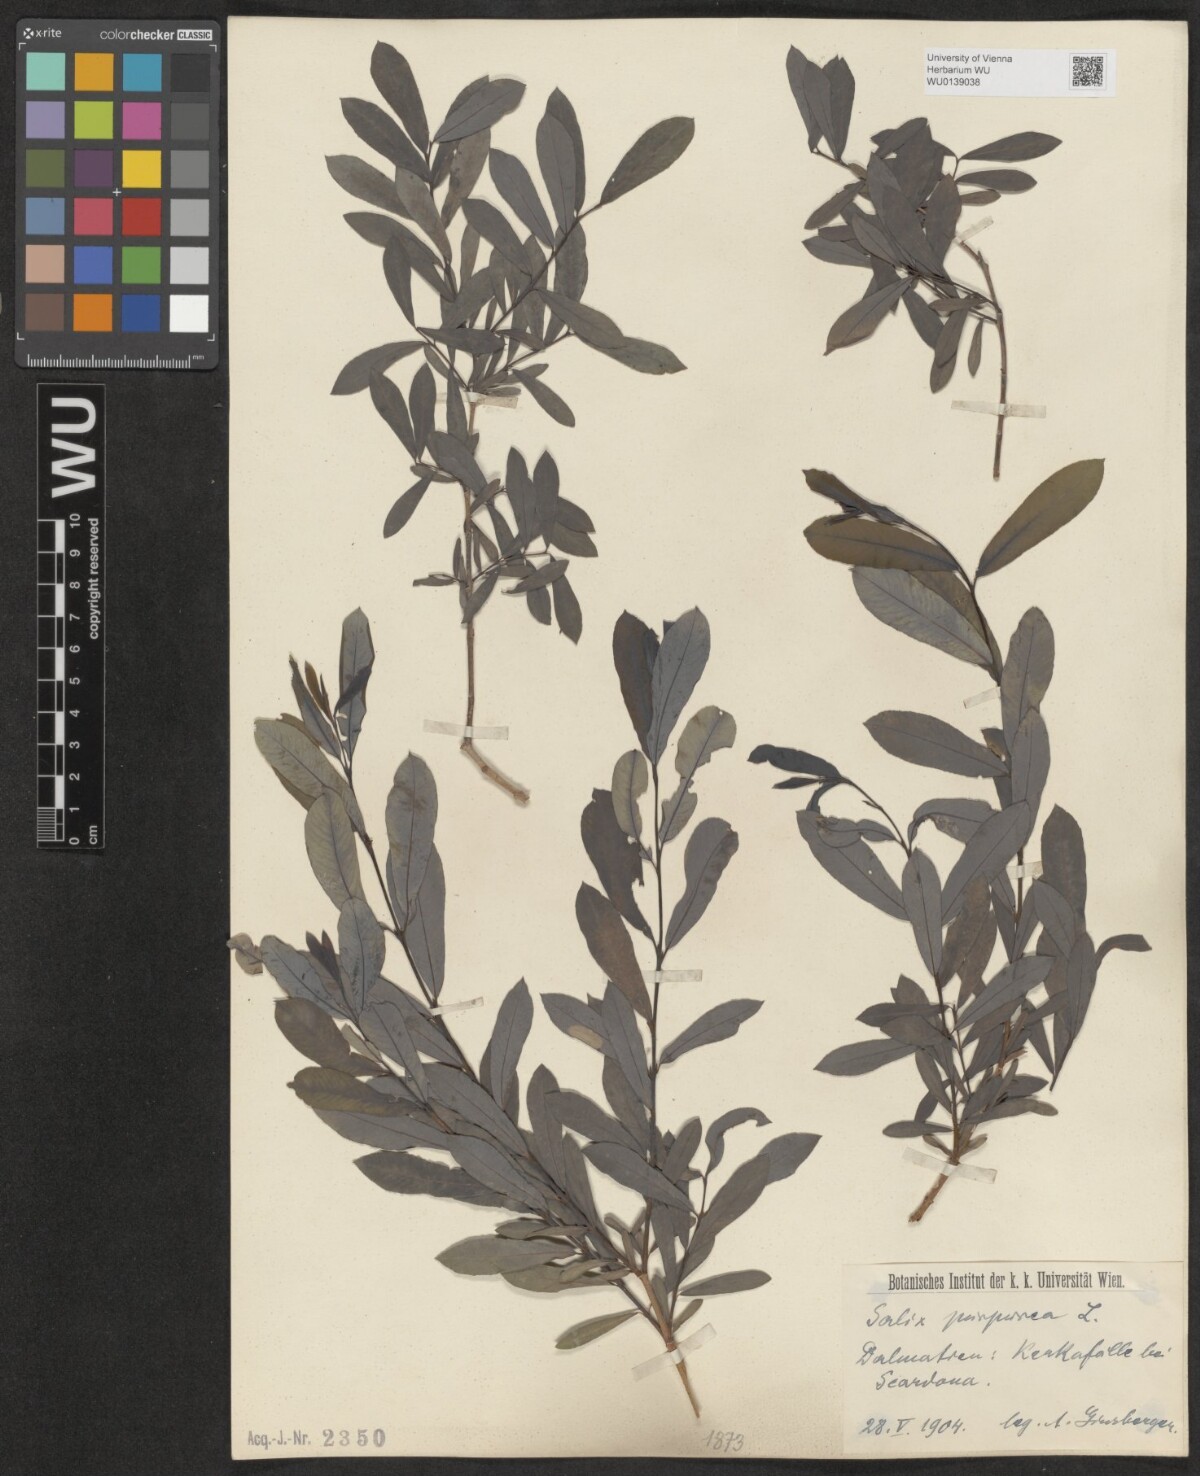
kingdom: Plantae
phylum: Tracheophyta
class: Magnoliopsida
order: Malpighiales
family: Salicaceae
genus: Salix
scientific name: Salix purpurea
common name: Purple willow
